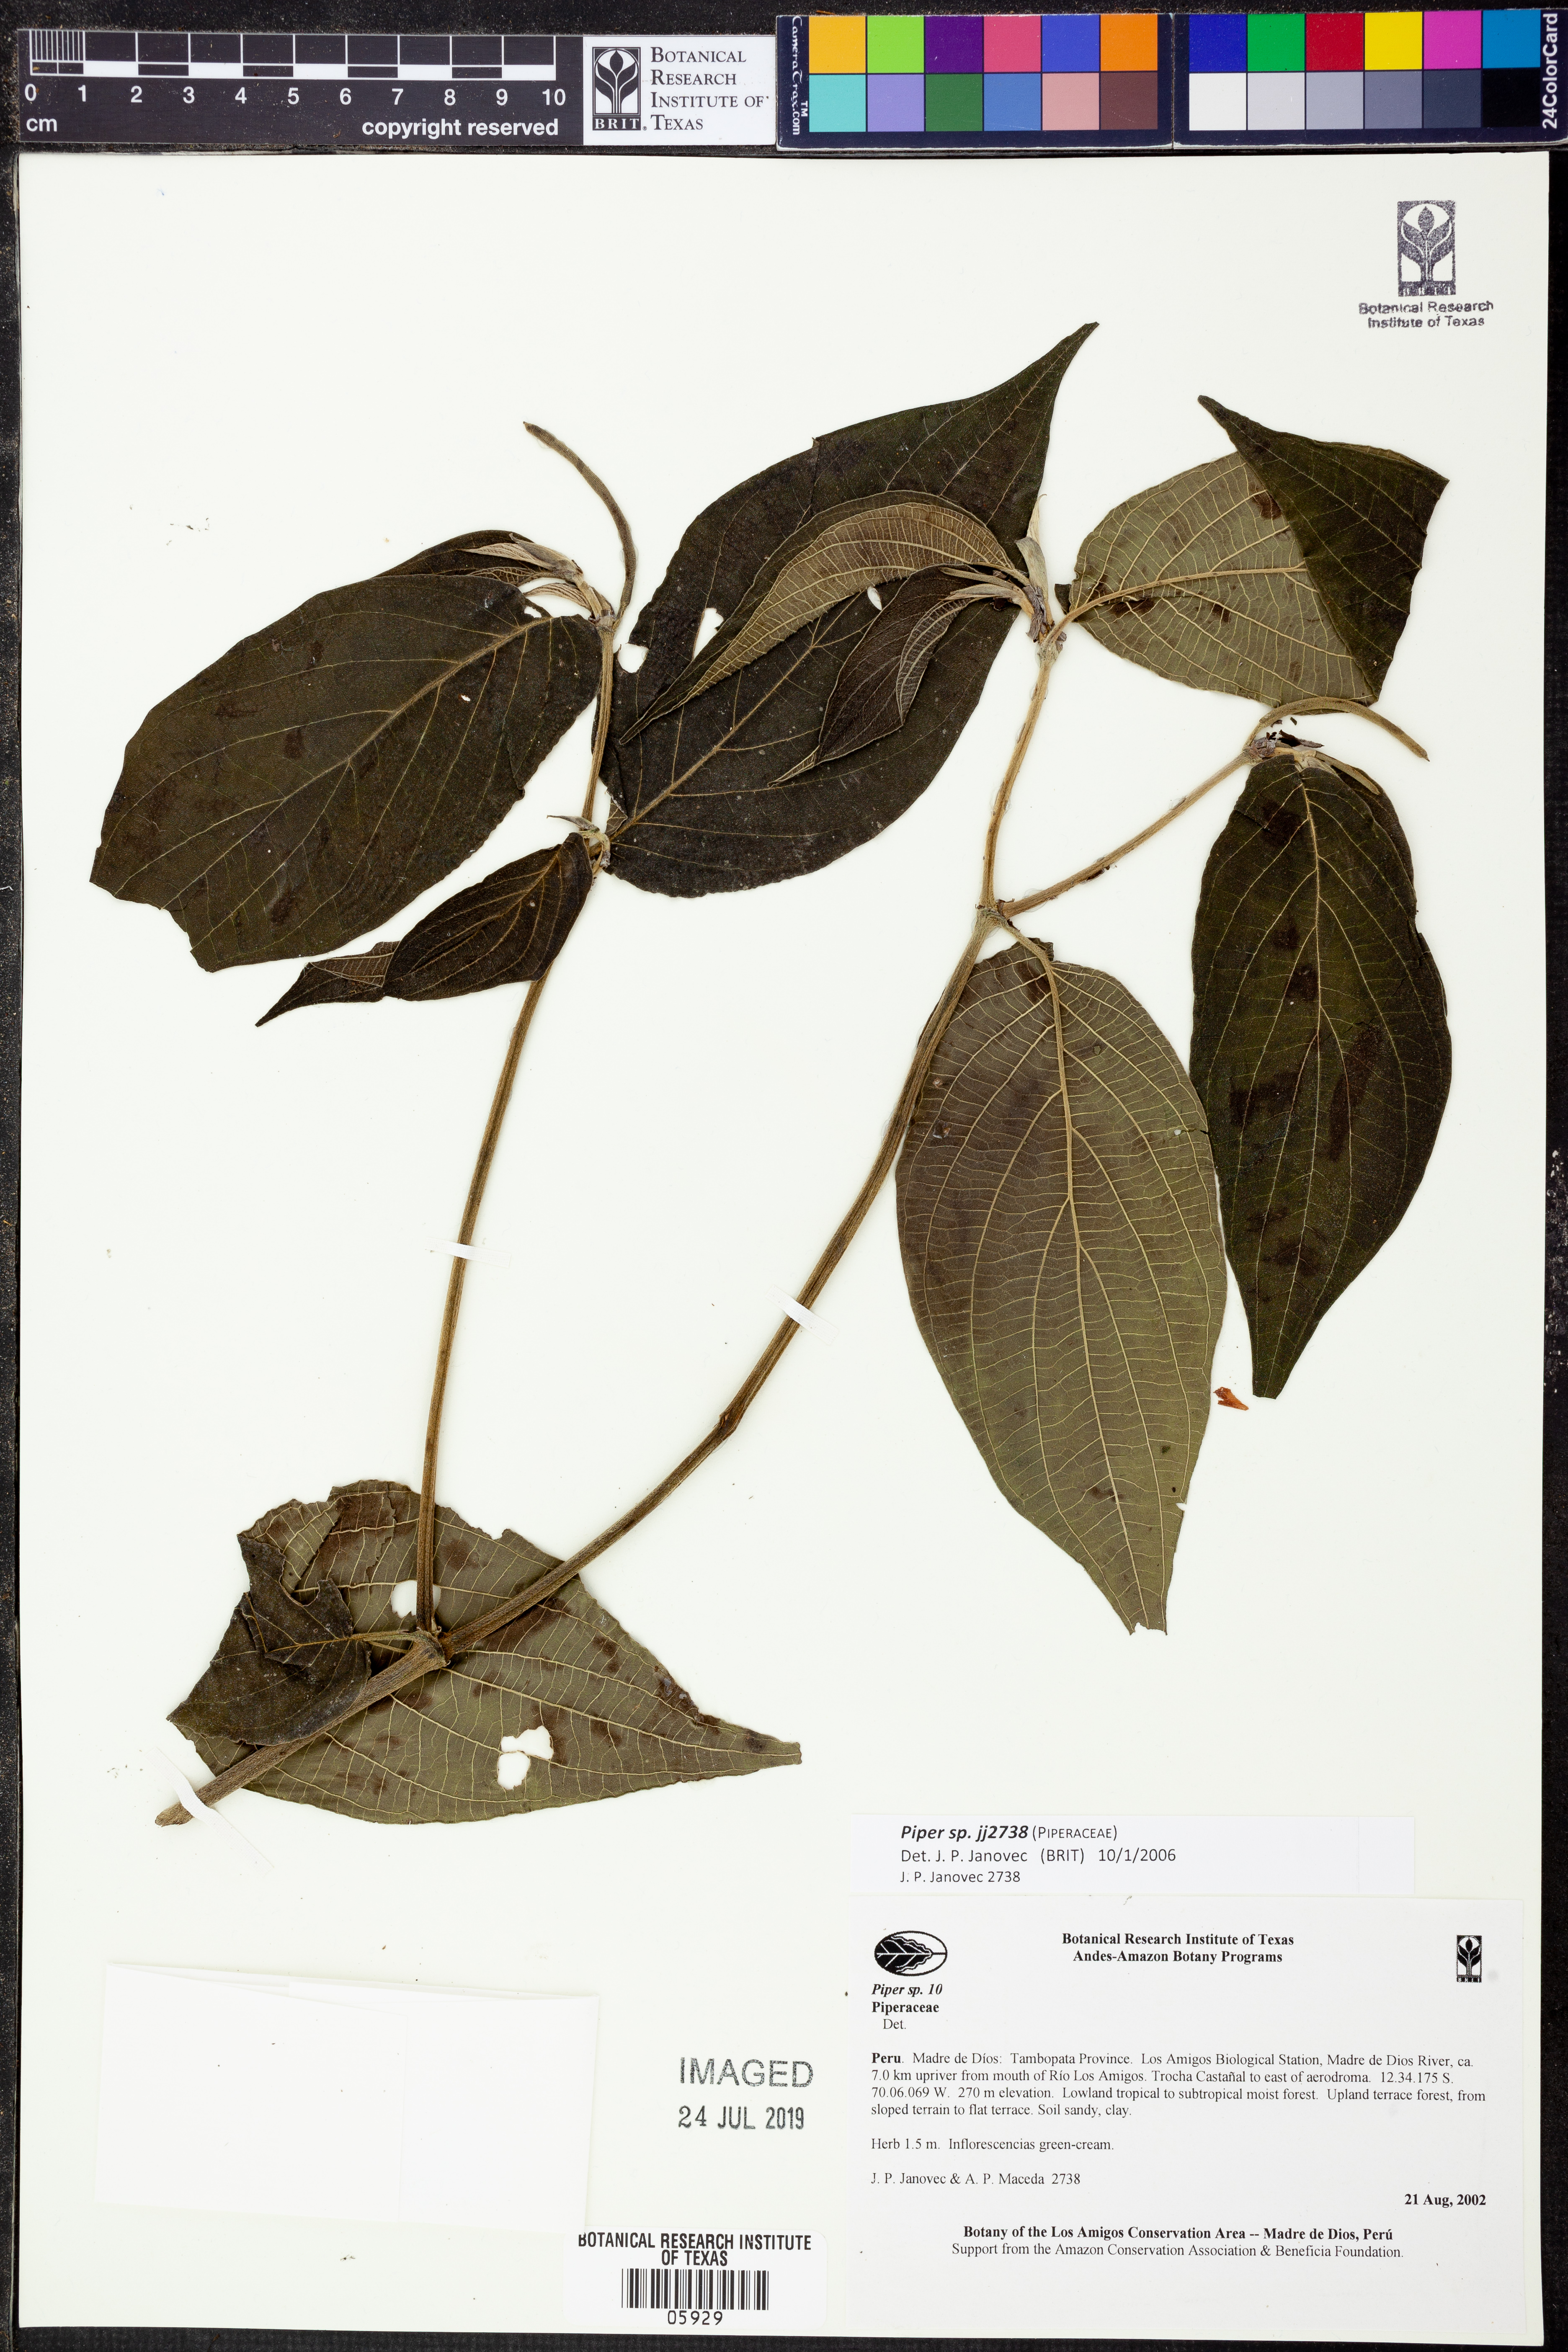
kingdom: Plantae
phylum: Tracheophyta
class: Magnoliopsida
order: Piperales
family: Piperaceae
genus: Piper
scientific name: Piper
